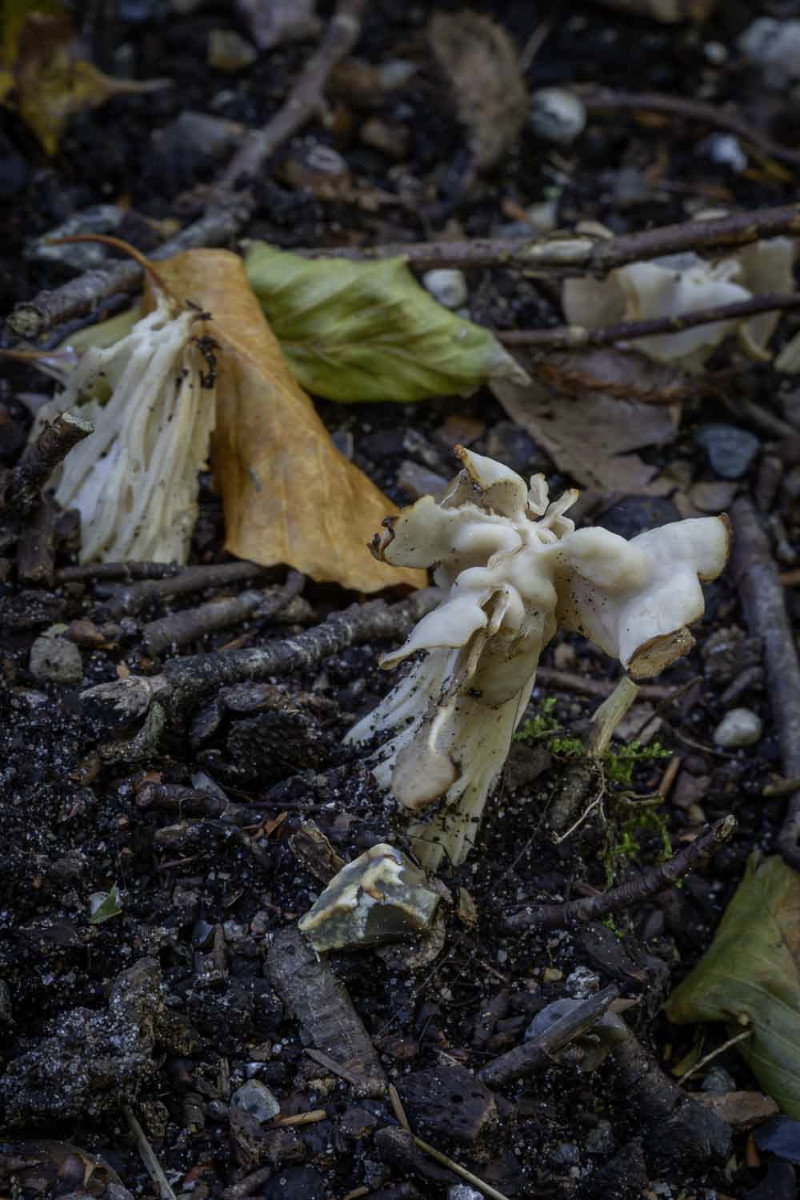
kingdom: Fungi
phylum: Ascomycota
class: Pezizomycetes
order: Pezizales
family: Helvellaceae
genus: Helvella
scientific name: Helvella crispa
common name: kruset foldhat
